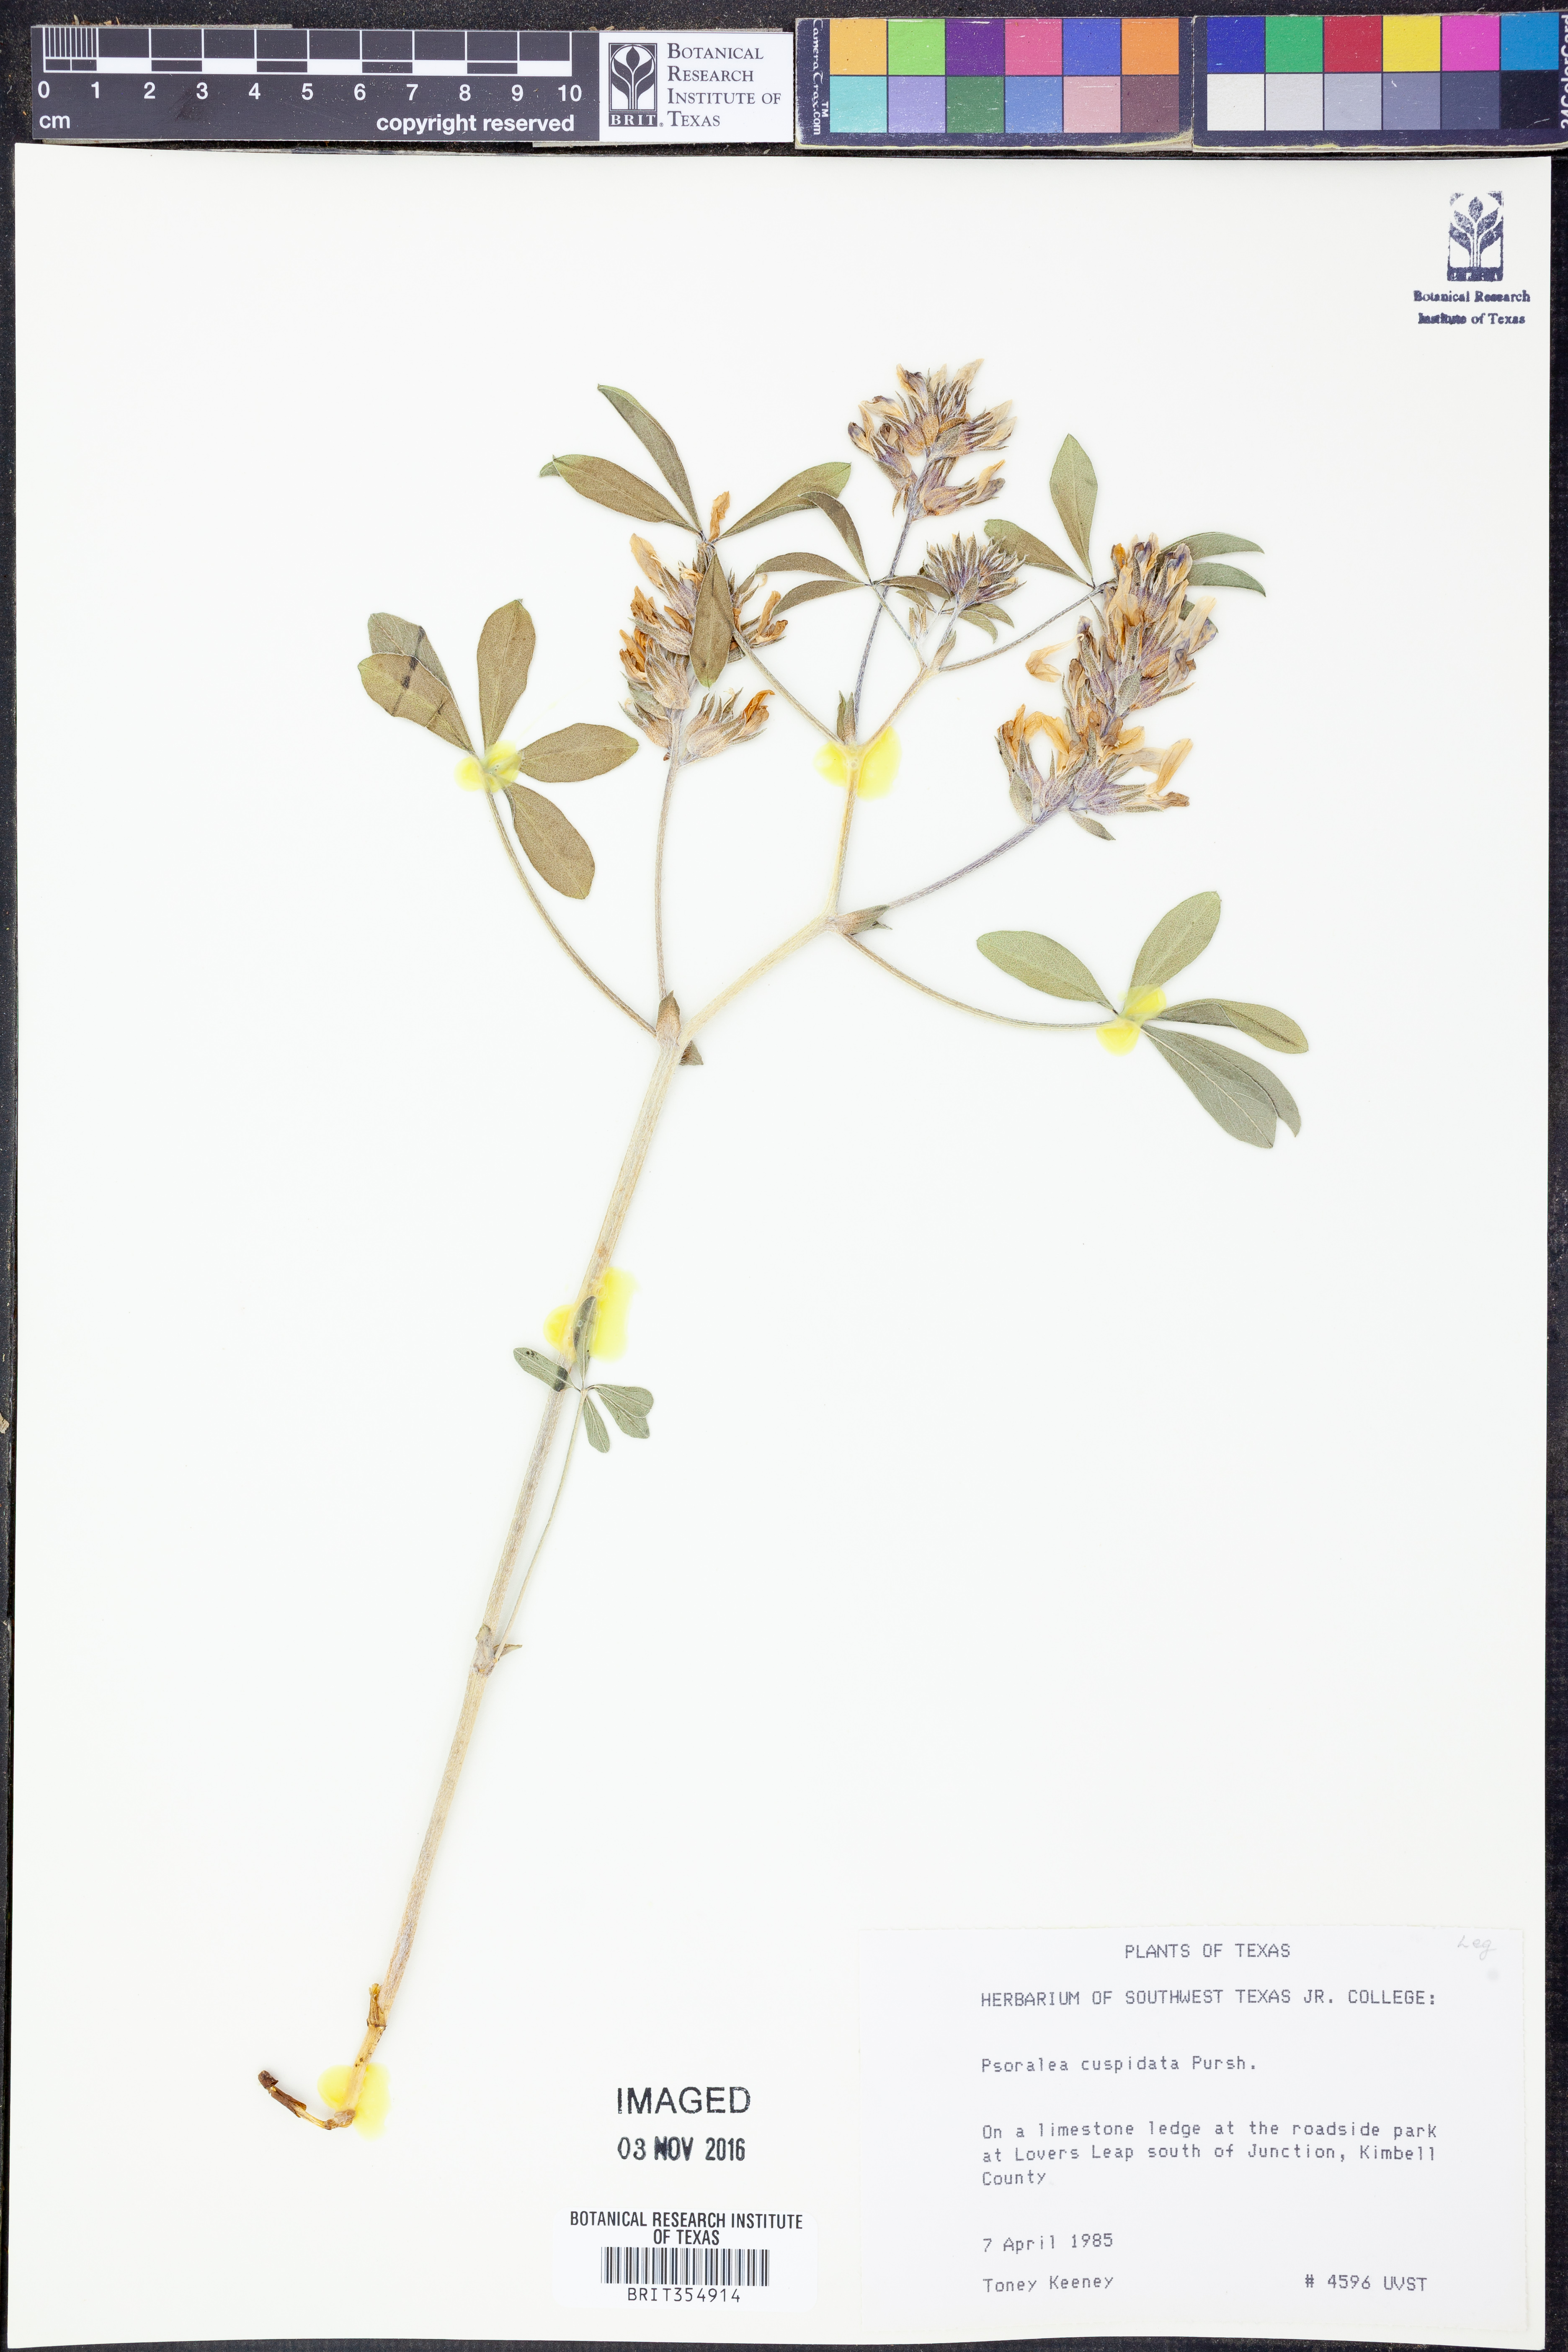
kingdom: Plantae
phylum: Tracheophyta
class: Magnoliopsida
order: Fabales
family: Fabaceae
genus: Pediomelum
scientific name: Pediomelum cuspidatum
